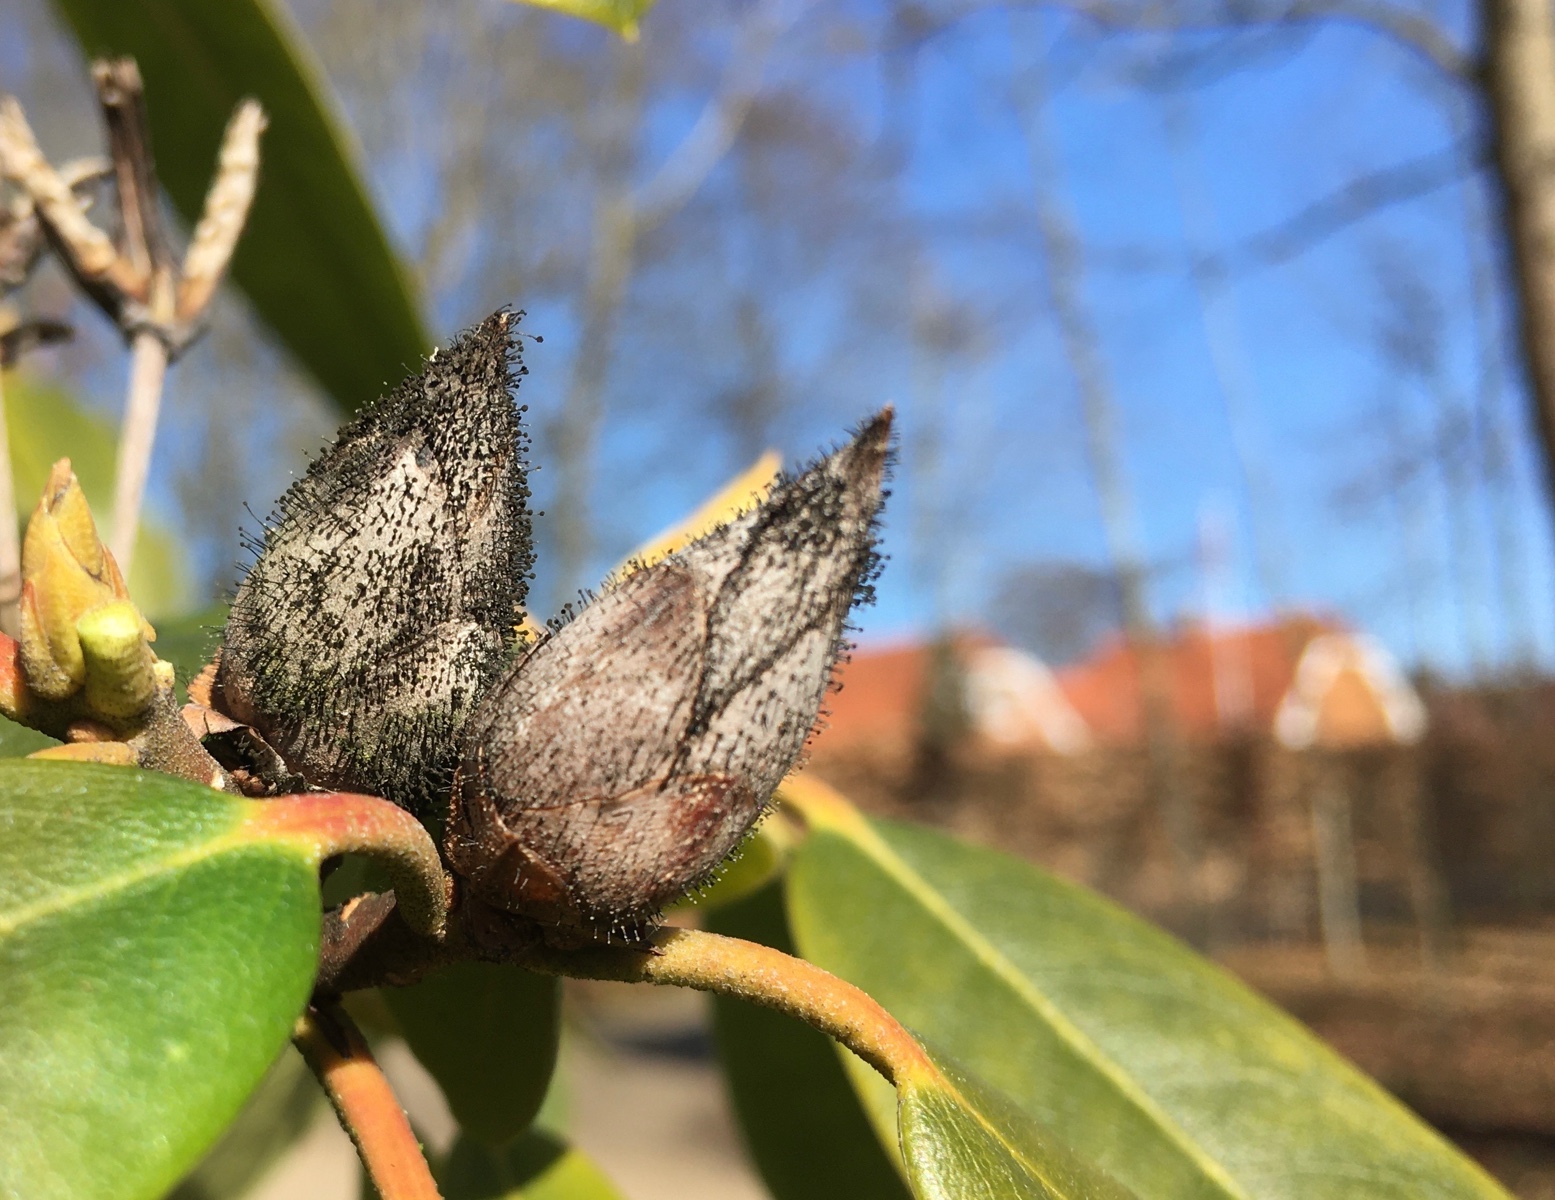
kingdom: Fungi
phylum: Ascomycota
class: Dothideomycetes
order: Pleosporales
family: Melanommataceae
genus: Seifertia
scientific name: Seifertia azaleae
